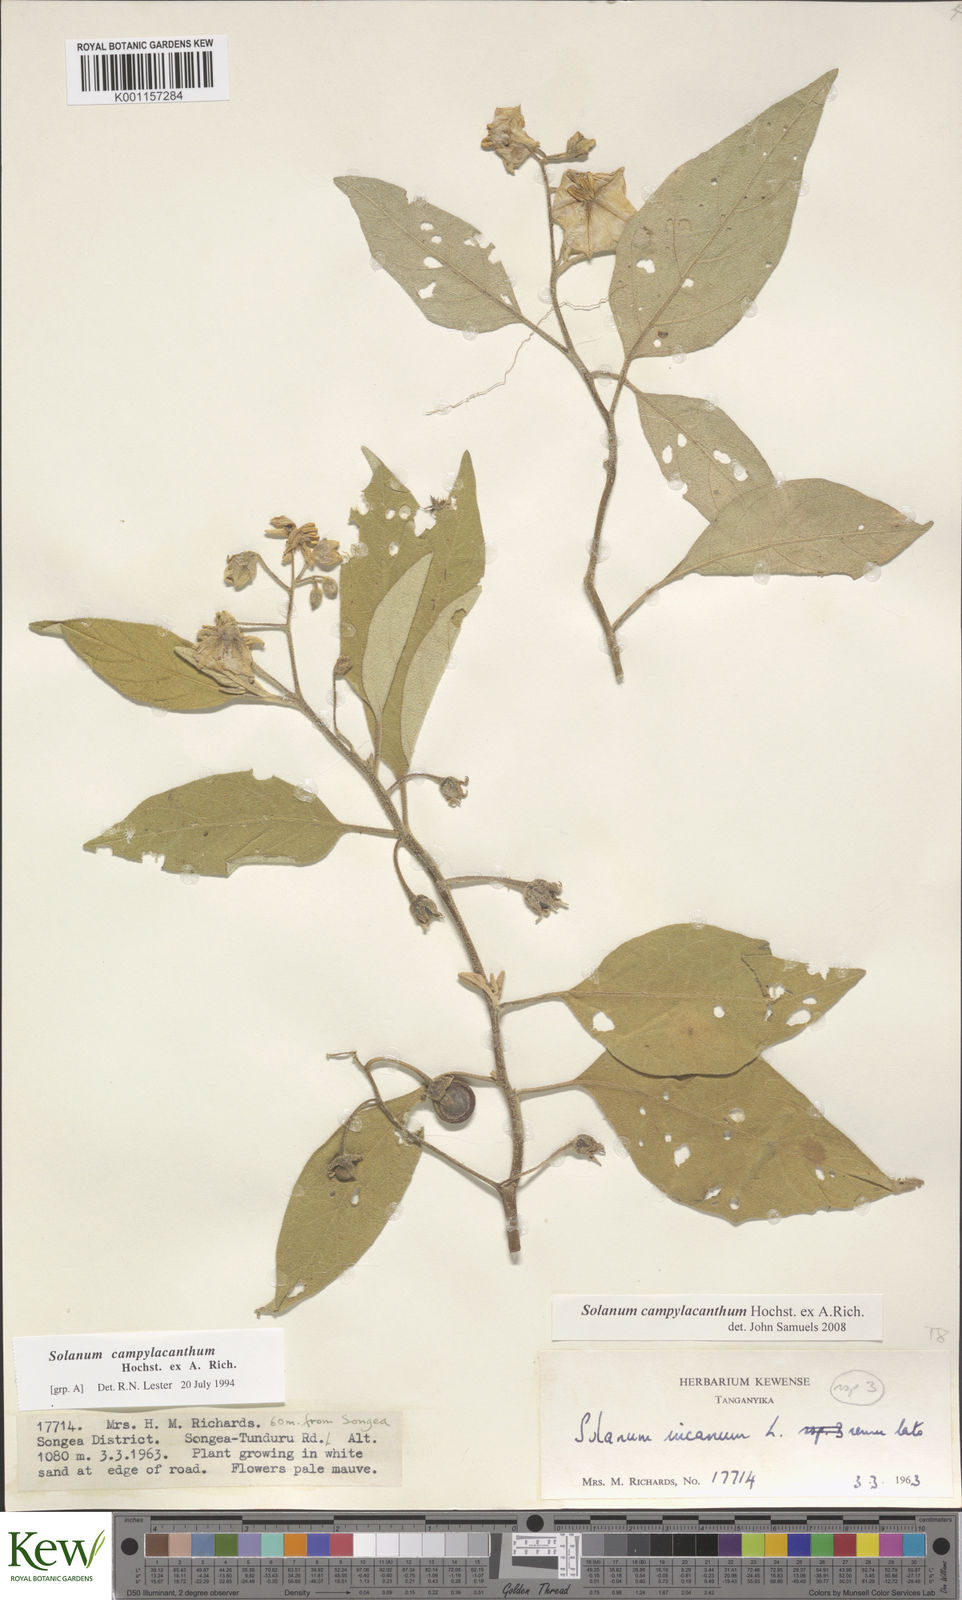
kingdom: Plantae
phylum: Tracheophyta
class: Magnoliopsida
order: Solanales
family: Solanaceae
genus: Solanum
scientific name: Solanum campylacanthum
